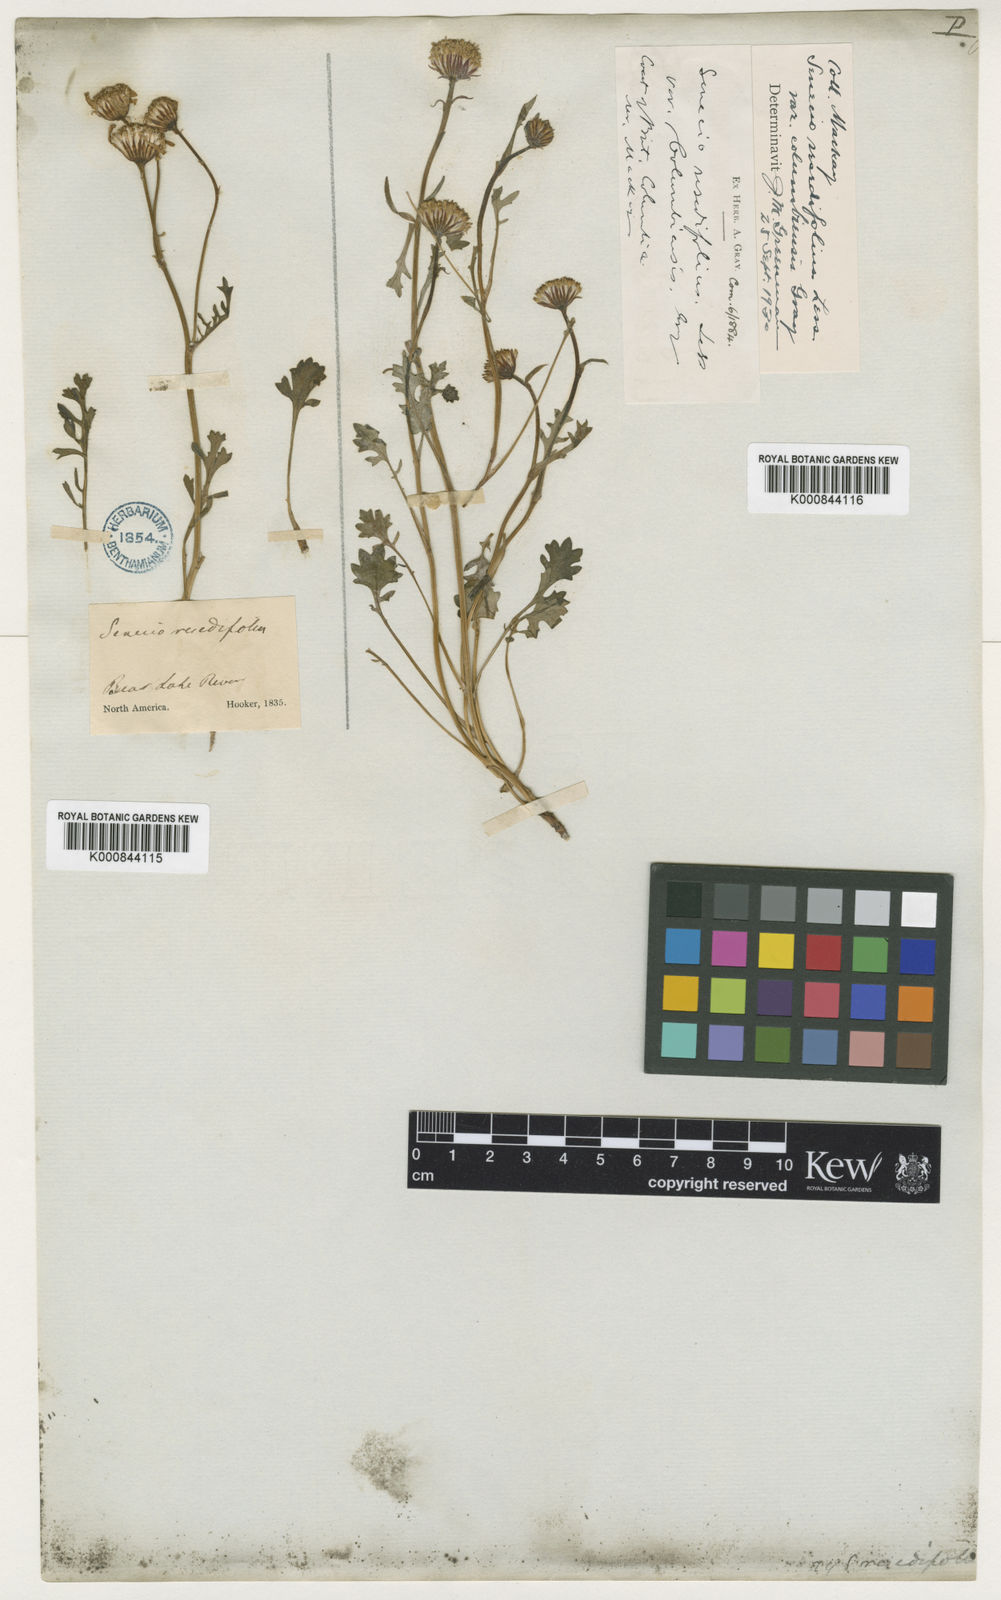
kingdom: Plantae
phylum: Tracheophyta
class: Magnoliopsida
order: Asterales
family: Asteraceae
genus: Packera
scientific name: Packera
